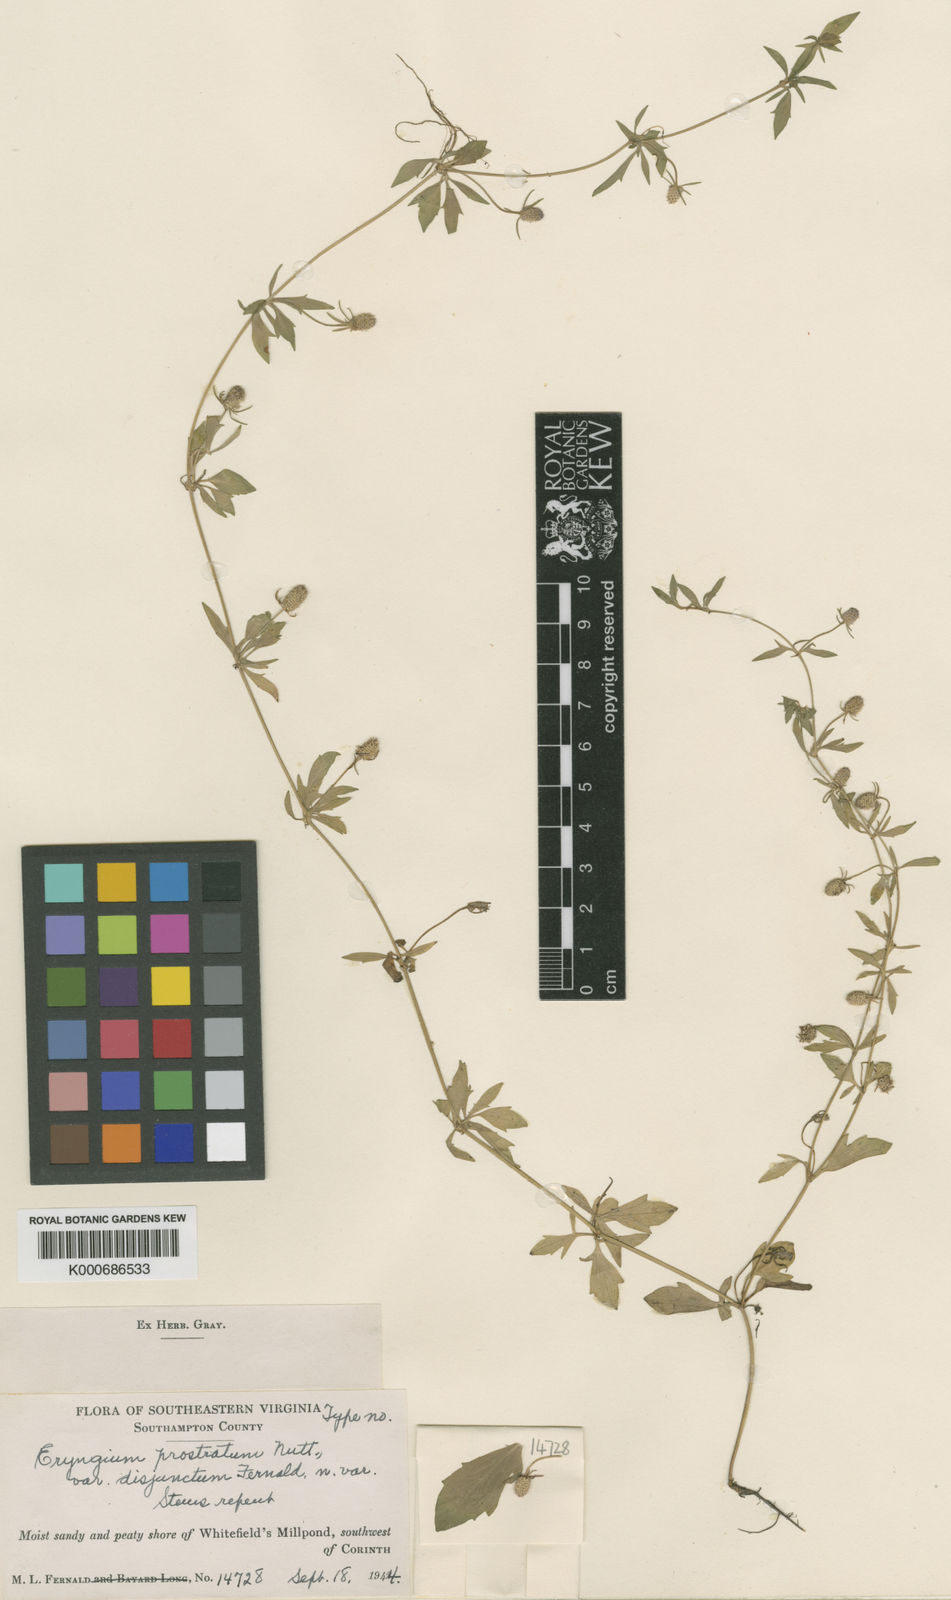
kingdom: Plantae
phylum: Tracheophyta
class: Magnoliopsida
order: Apiales
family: Apiaceae
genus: Eryngium
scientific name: Eryngium prostratum
